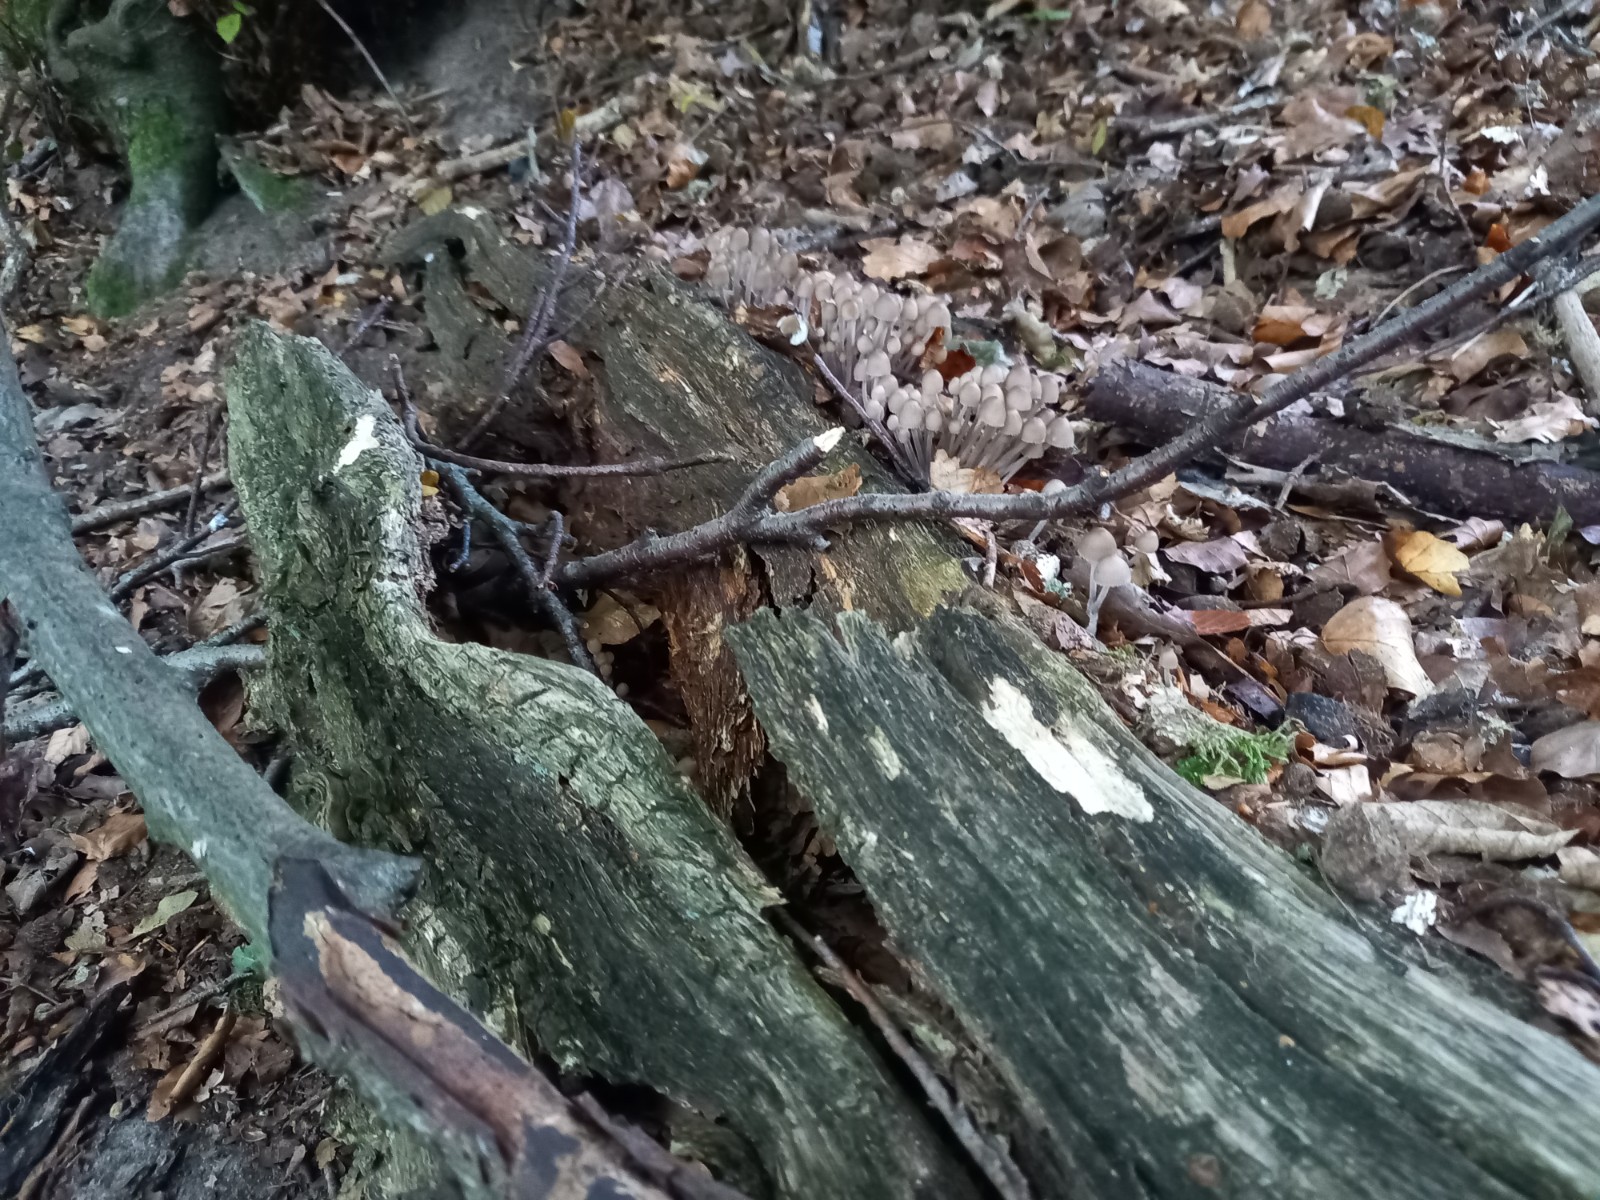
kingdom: Fungi
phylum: Basidiomycota
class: Agaricomycetes
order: Agaricales
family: Mycenaceae
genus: Mycena
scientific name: Mycena inclinata
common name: nikkende huesvamp
